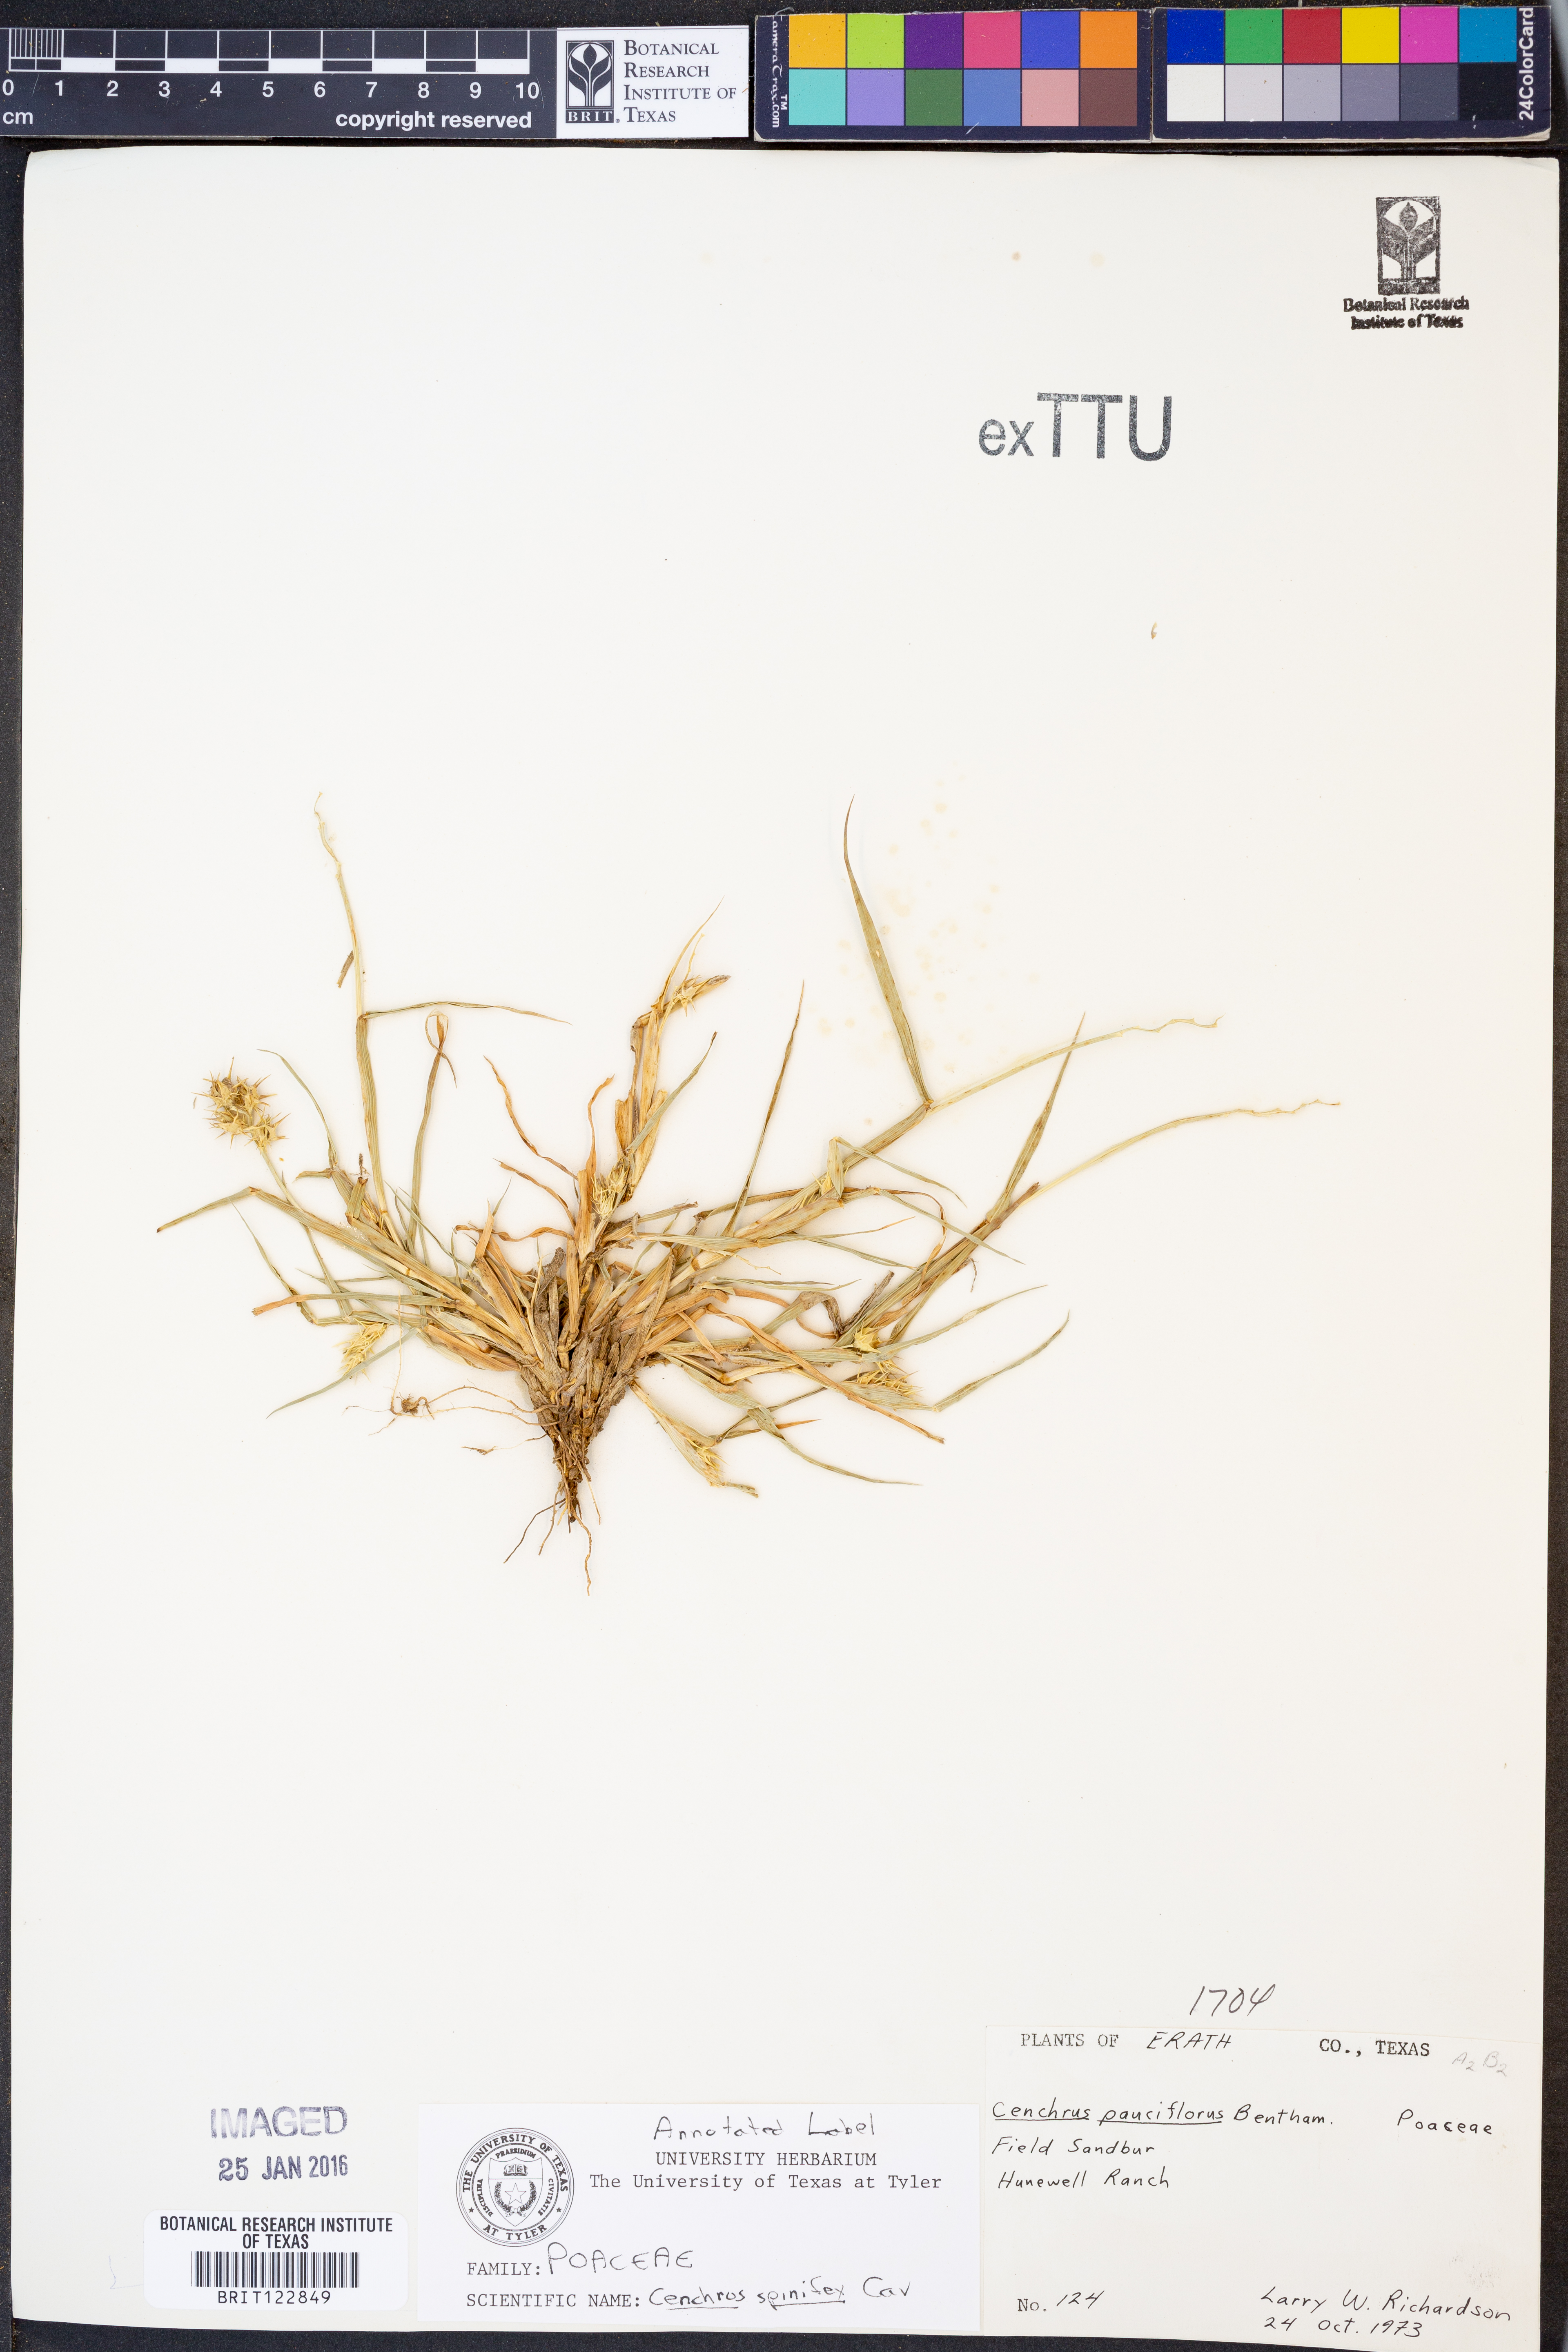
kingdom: Plantae
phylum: Tracheophyta
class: Liliopsida
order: Poales
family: Poaceae
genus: Cenchrus
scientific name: Cenchrus spinifex
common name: Coast sandbur
